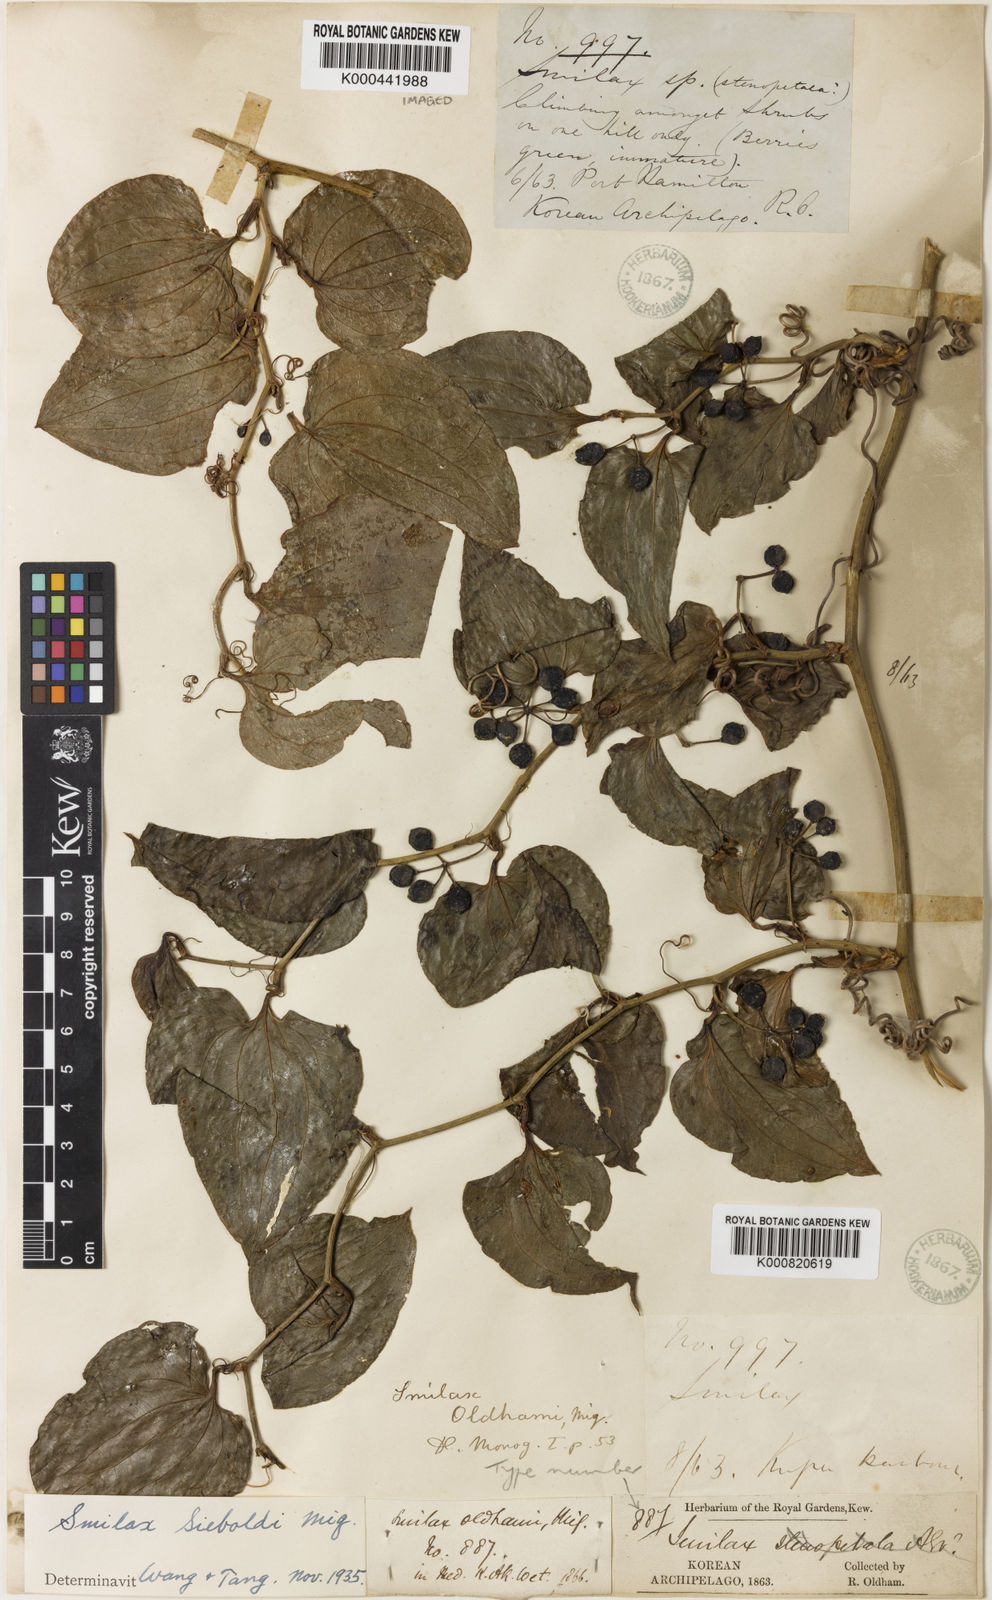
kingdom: Plantae
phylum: Tracheophyta
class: Liliopsida
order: Liliales
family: Smilacaceae
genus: Smilax
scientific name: Smilax sieboldii
